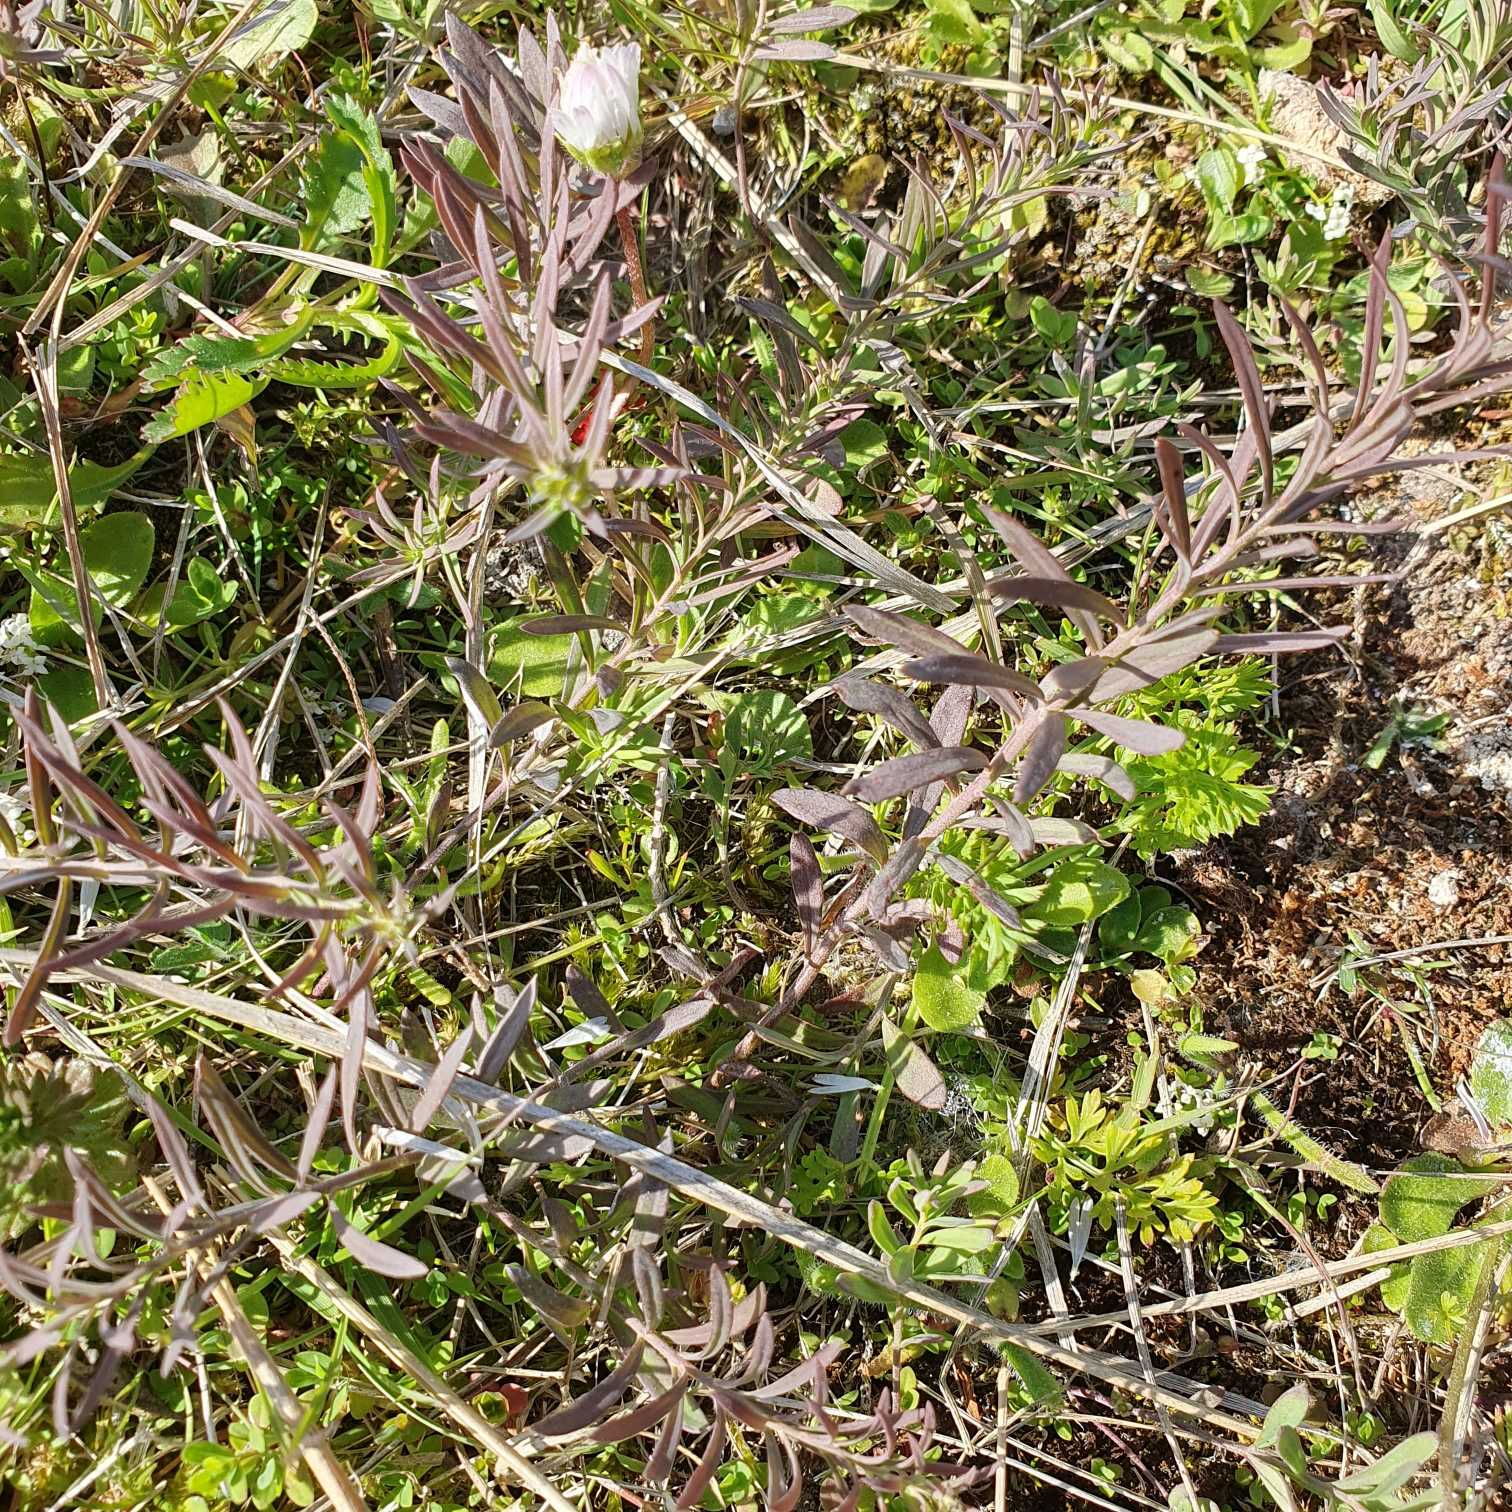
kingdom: Plantae
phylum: Tracheophyta
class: Magnoliopsida
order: Lamiales
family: Plantaginaceae
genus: Linaria
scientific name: Linaria vulgaris
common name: Almindelig torskemund
